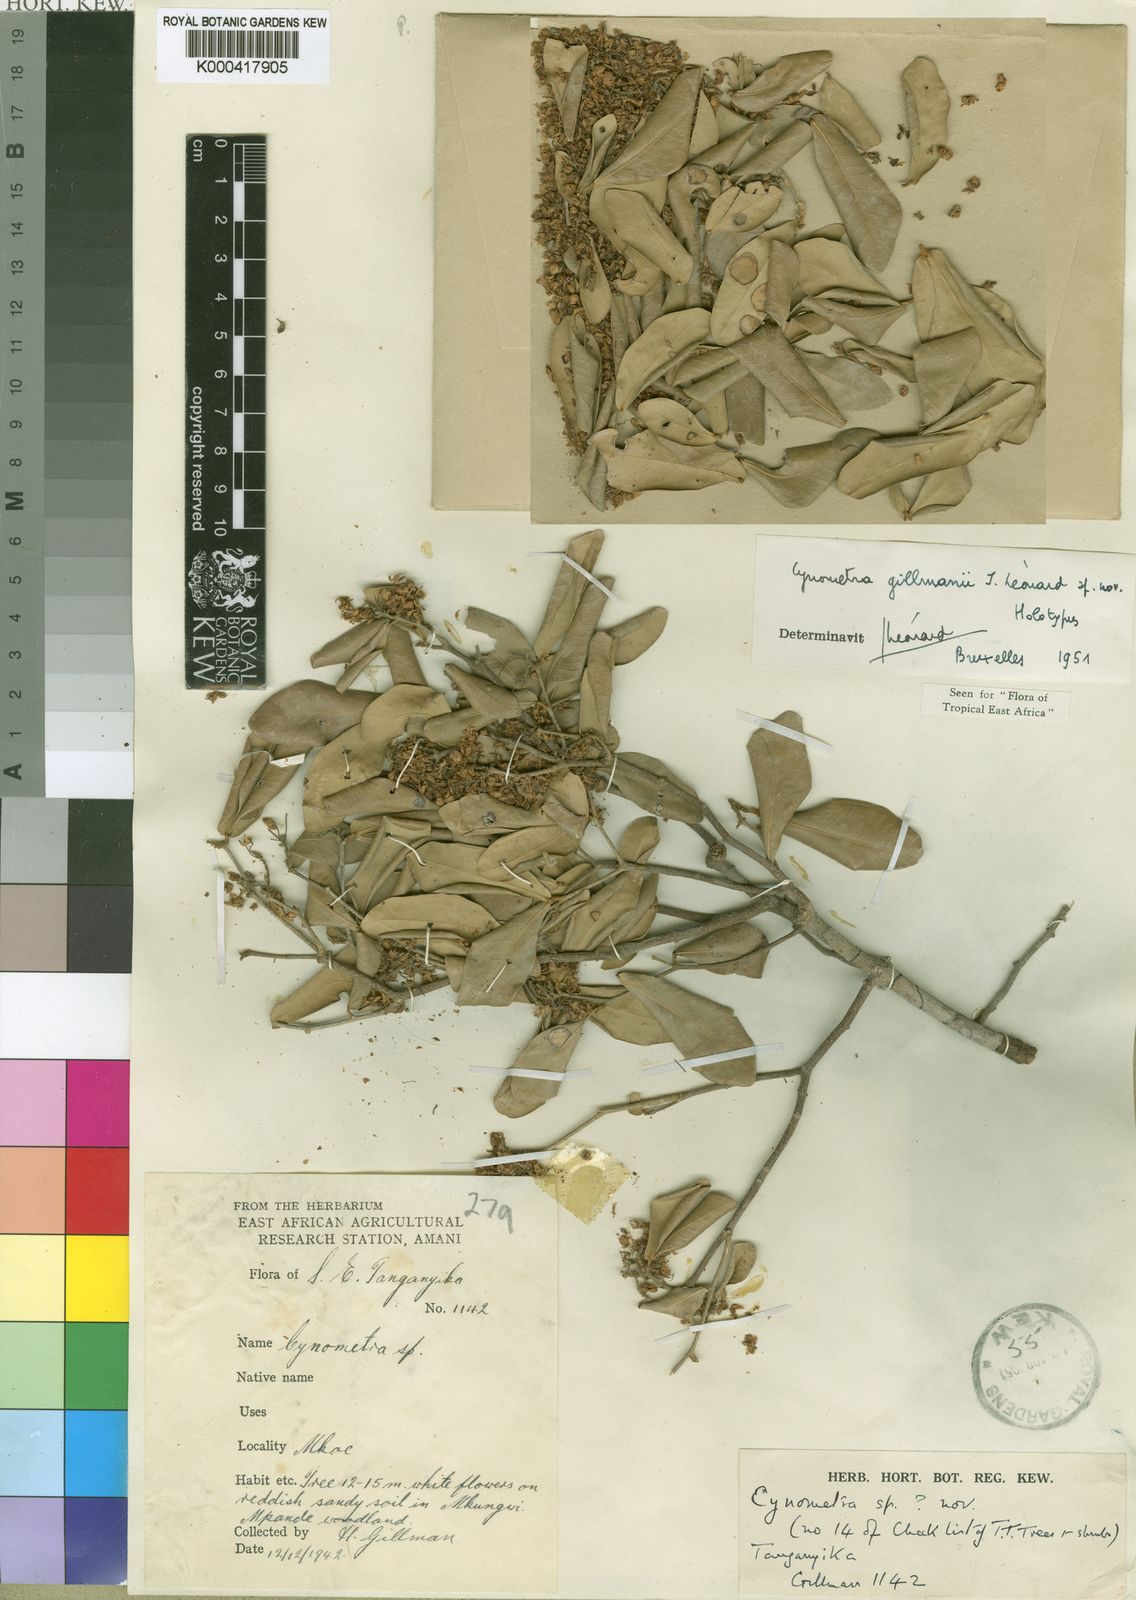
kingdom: Plantae
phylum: Tracheophyta
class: Magnoliopsida
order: Fabales
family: Fabaceae
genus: Cynometra
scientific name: Cynometra
